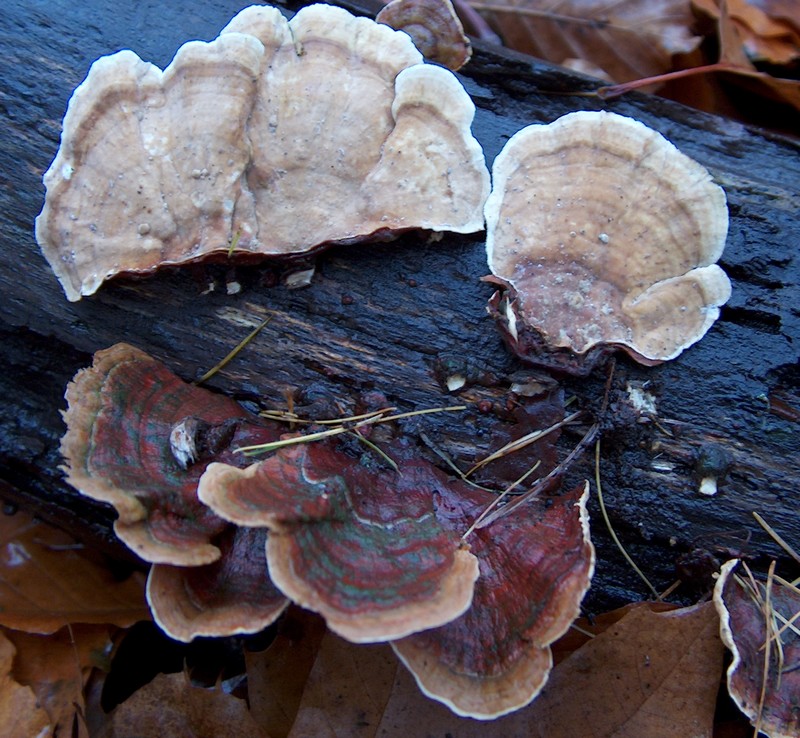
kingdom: Fungi
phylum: Basidiomycota
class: Agaricomycetes
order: Russulales
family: Stereaceae
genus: Stereum
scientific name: Stereum subtomentosum
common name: smuk lædersvamp
